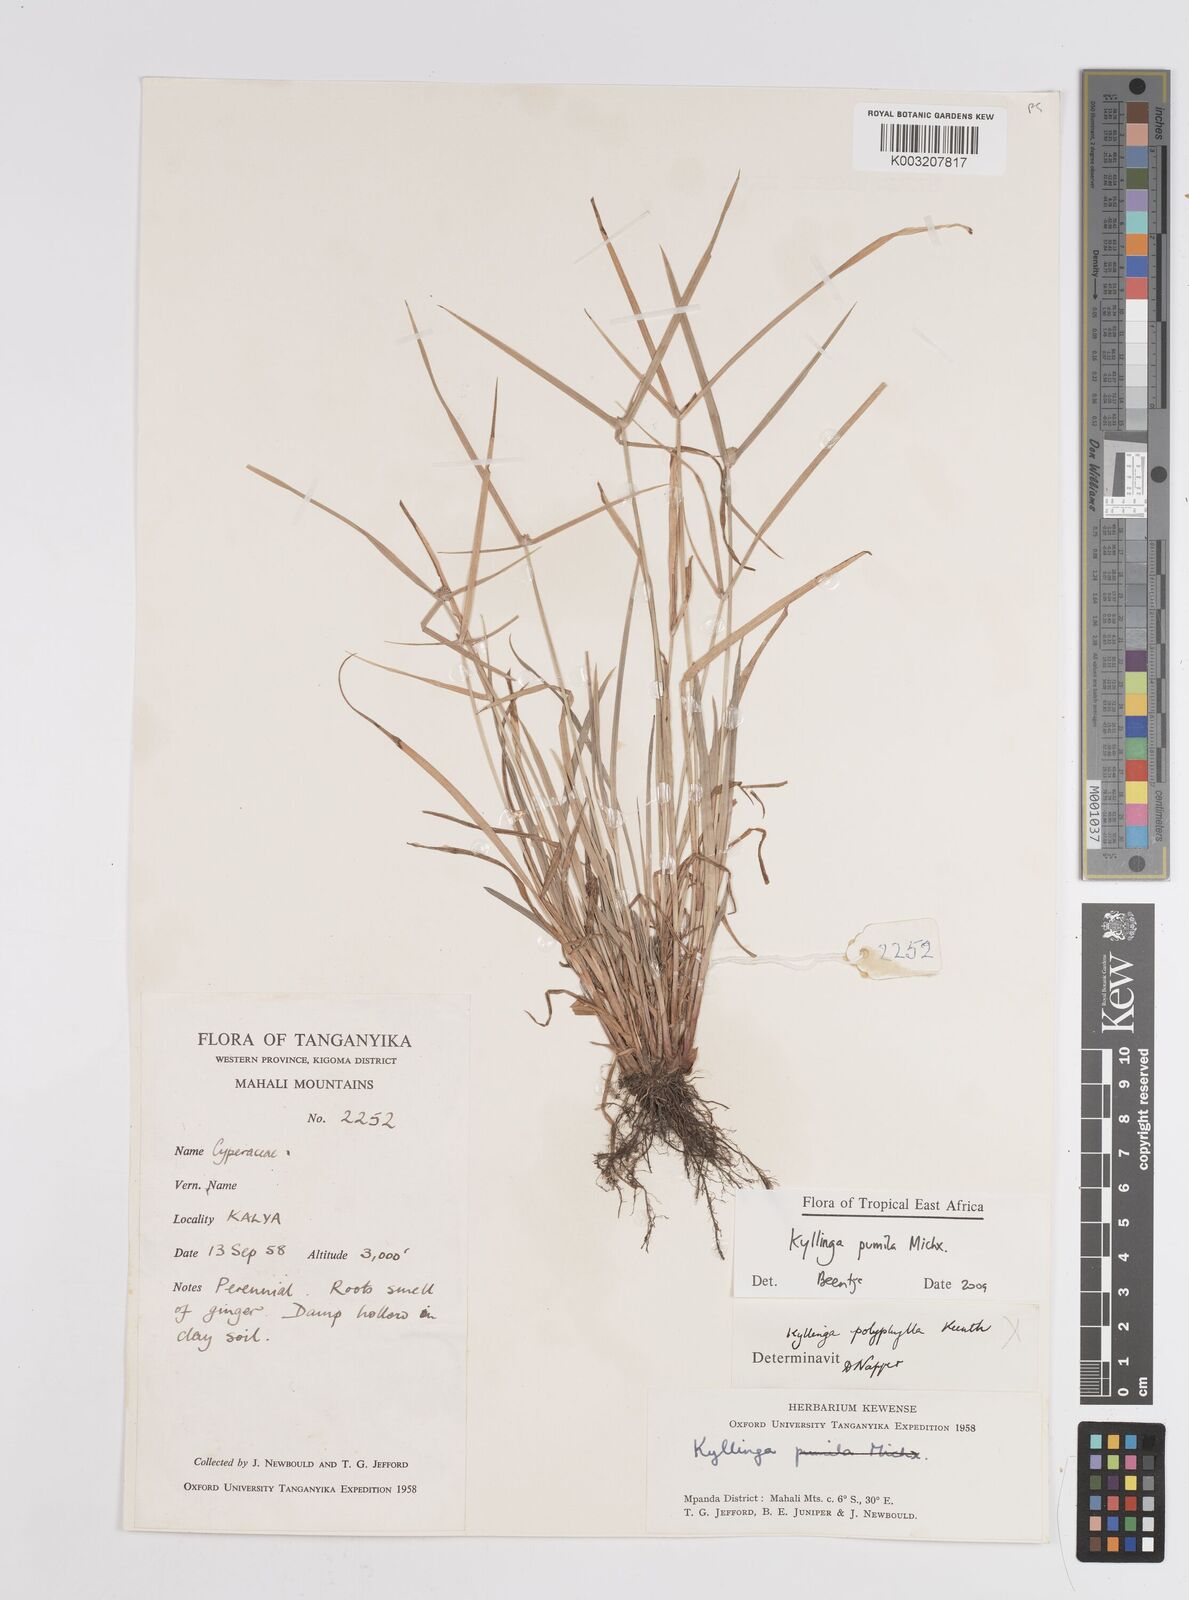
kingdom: Plantae
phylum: Tracheophyta
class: Liliopsida
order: Poales
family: Cyperaceae
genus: Cyperus
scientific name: Cyperus hortensis
